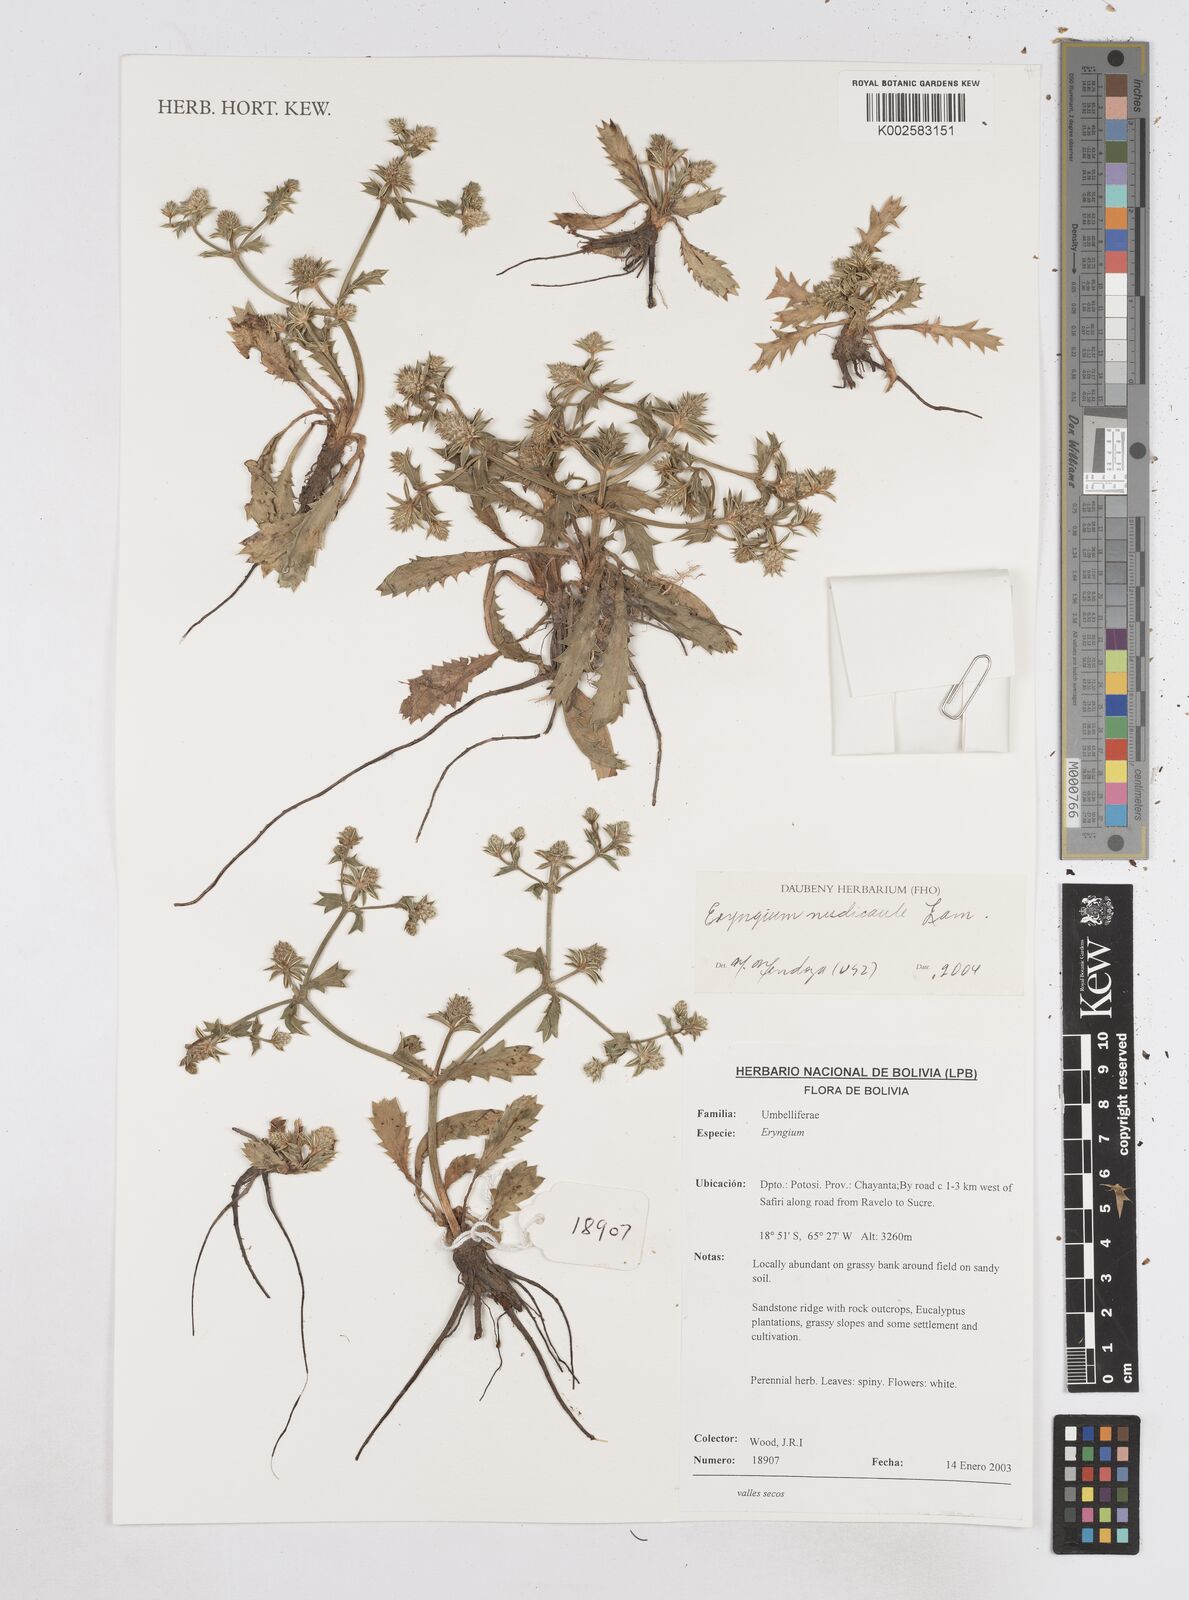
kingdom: Plantae
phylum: Tracheophyta
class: Magnoliopsida
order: Apiales
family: Apiaceae
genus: Eryngium
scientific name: Eryngium nudicaule
